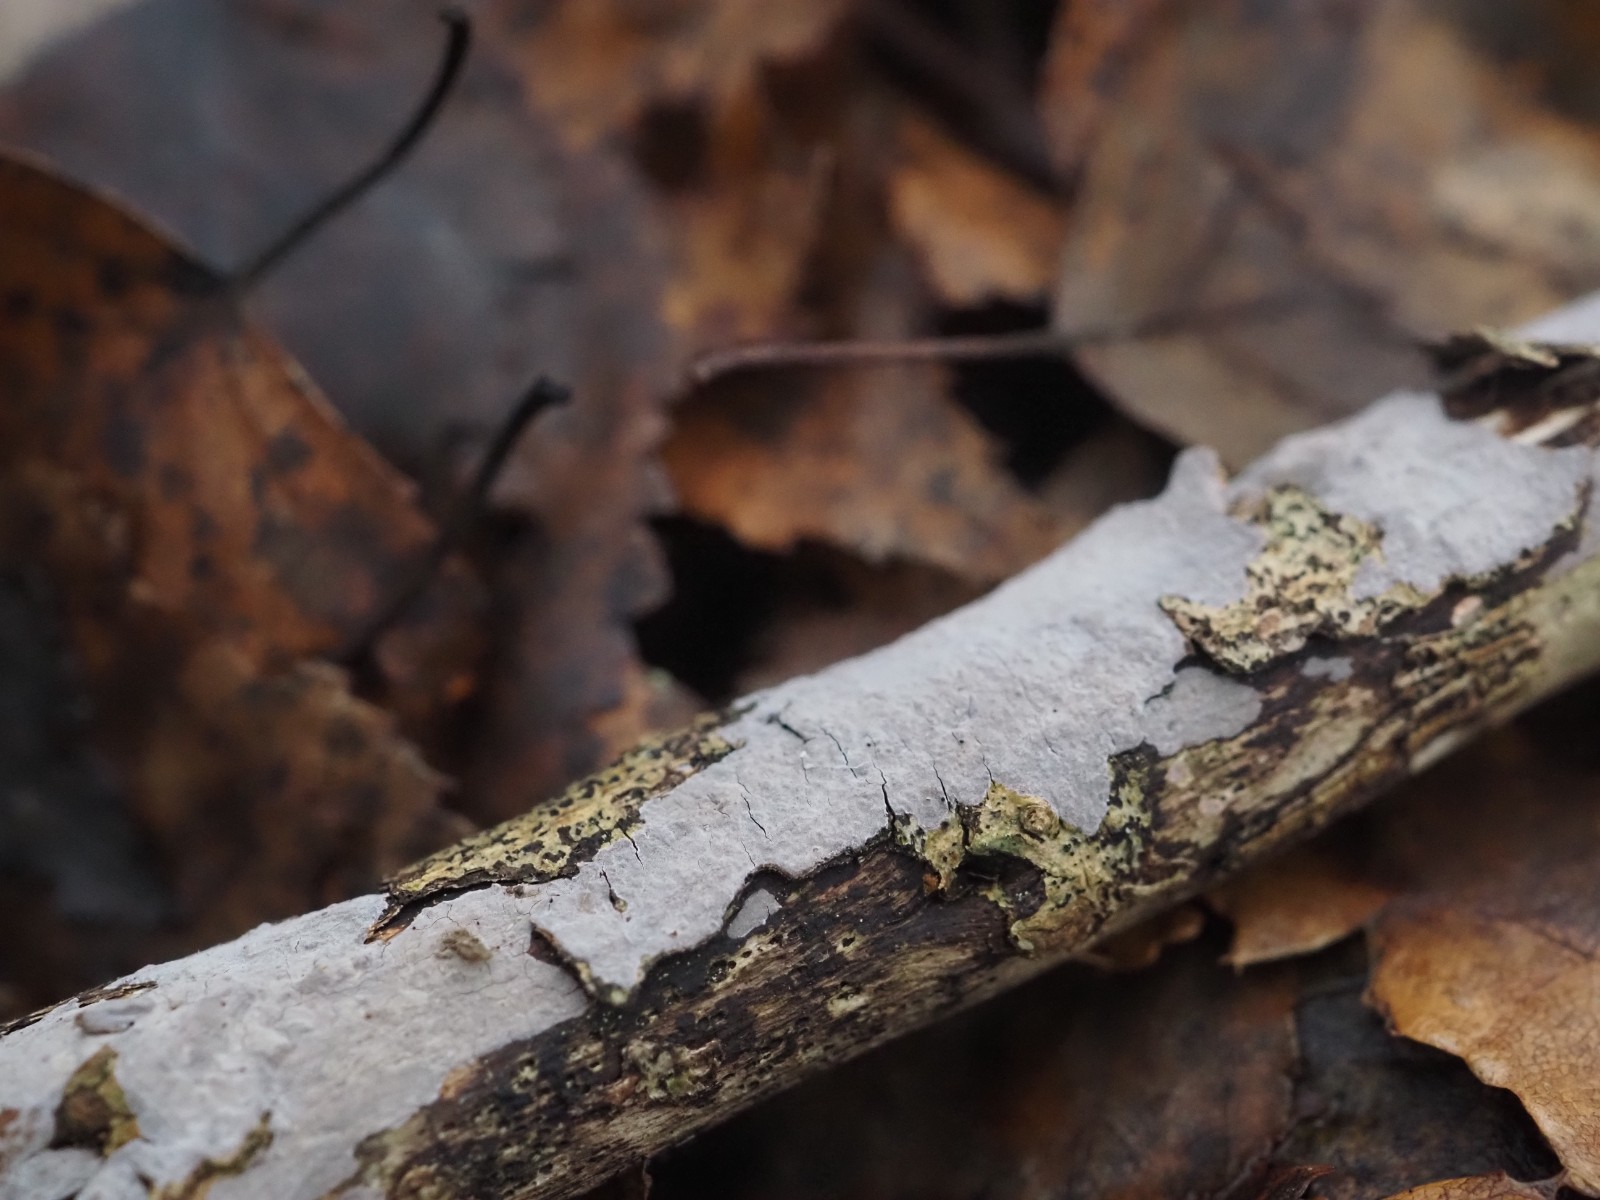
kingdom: Fungi
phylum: Basidiomycota
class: Agaricomycetes
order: Russulales
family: Peniophoraceae
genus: Peniophora
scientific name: Peniophora
